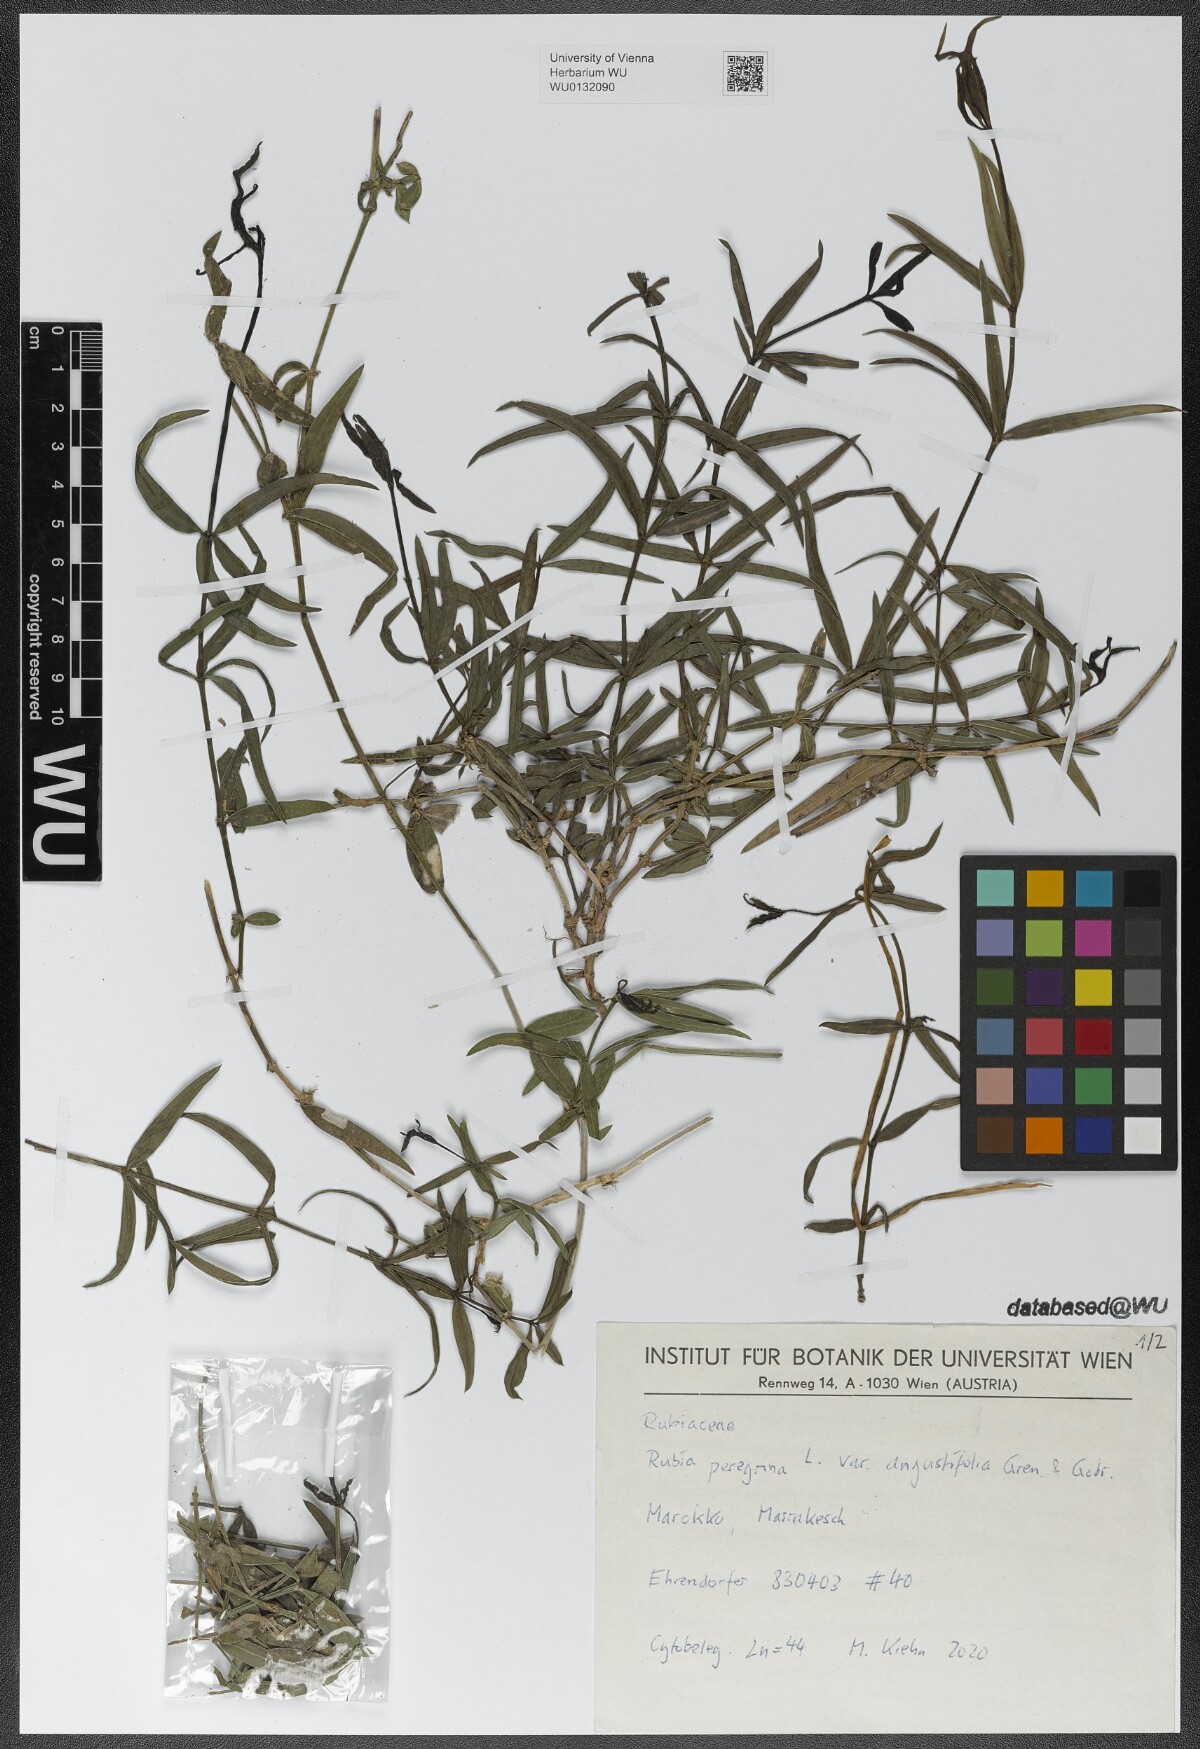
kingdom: Plantae
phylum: Tracheophyta
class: Magnoliopsida
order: Gentianales
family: Rubiaceae
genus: Rubia
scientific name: Rubia peregrina
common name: Wild madder
